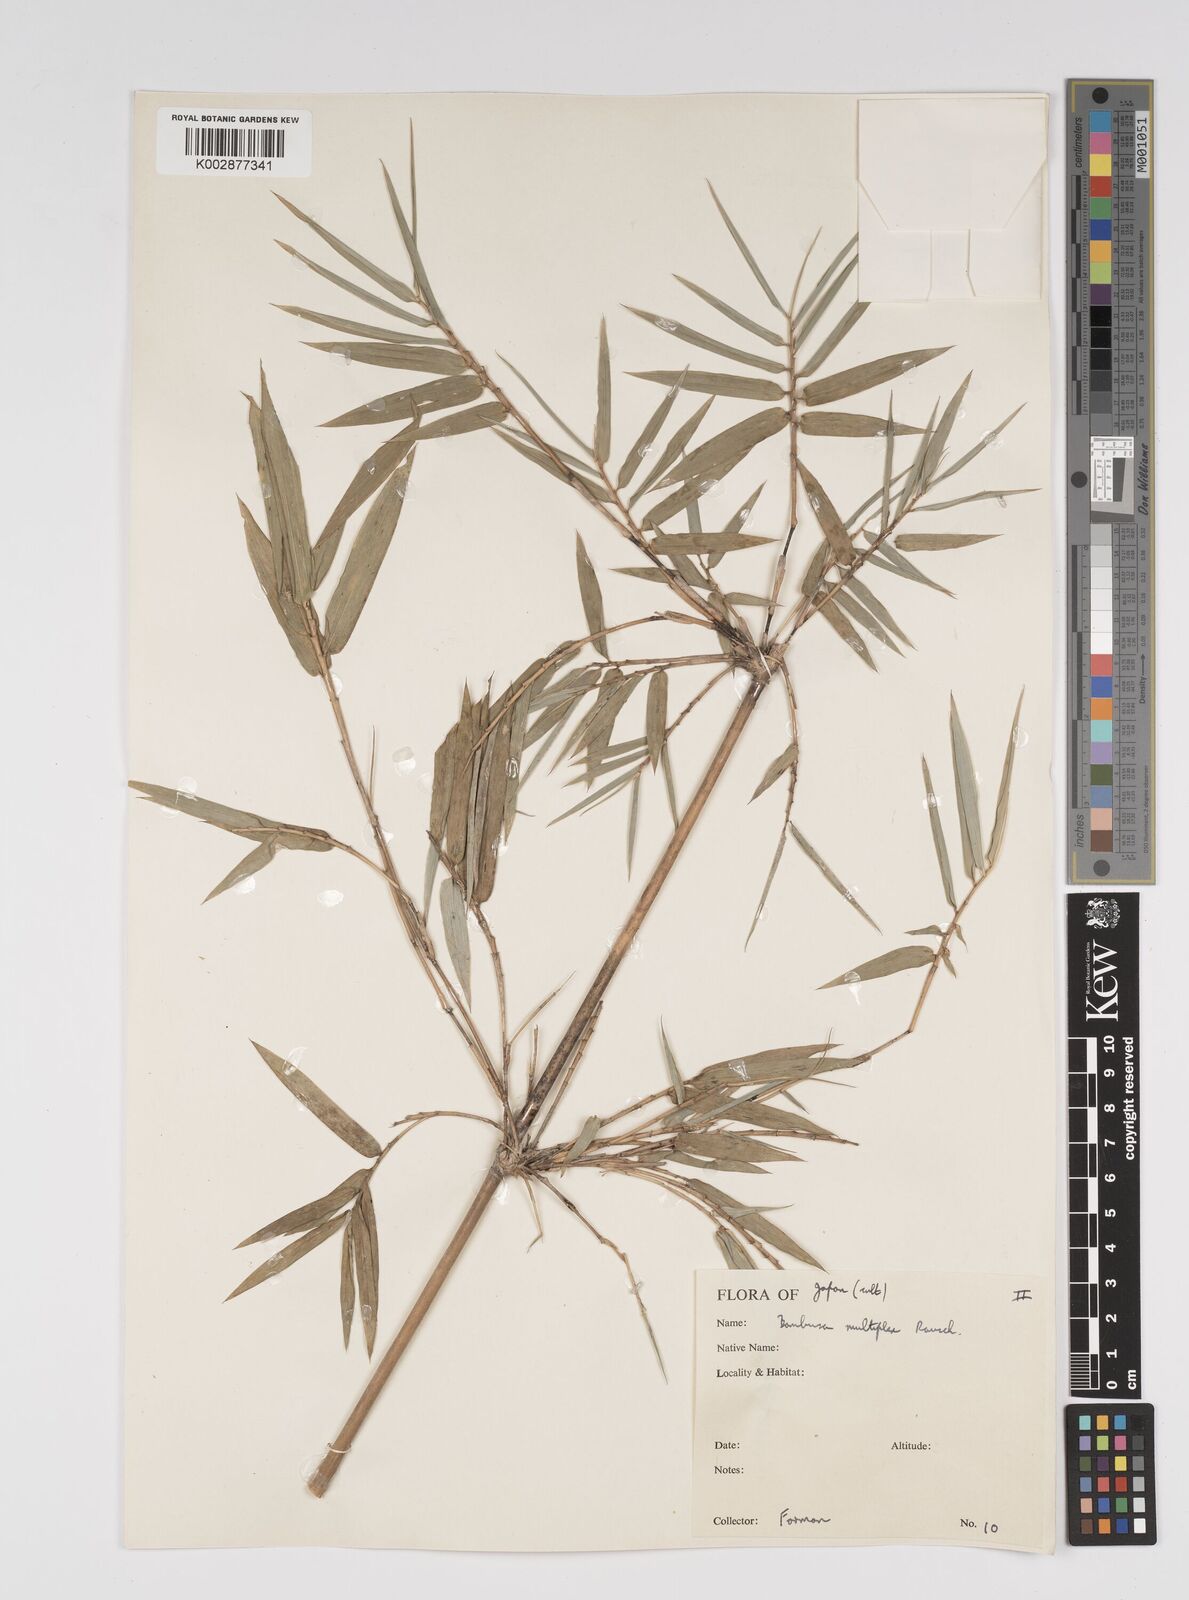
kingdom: Plantae
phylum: Tracheophyta
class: Liliopsida
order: Poales
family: Poaceae
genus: Bambusa
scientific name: Bambusa multiplex
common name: Hedge bamboo
